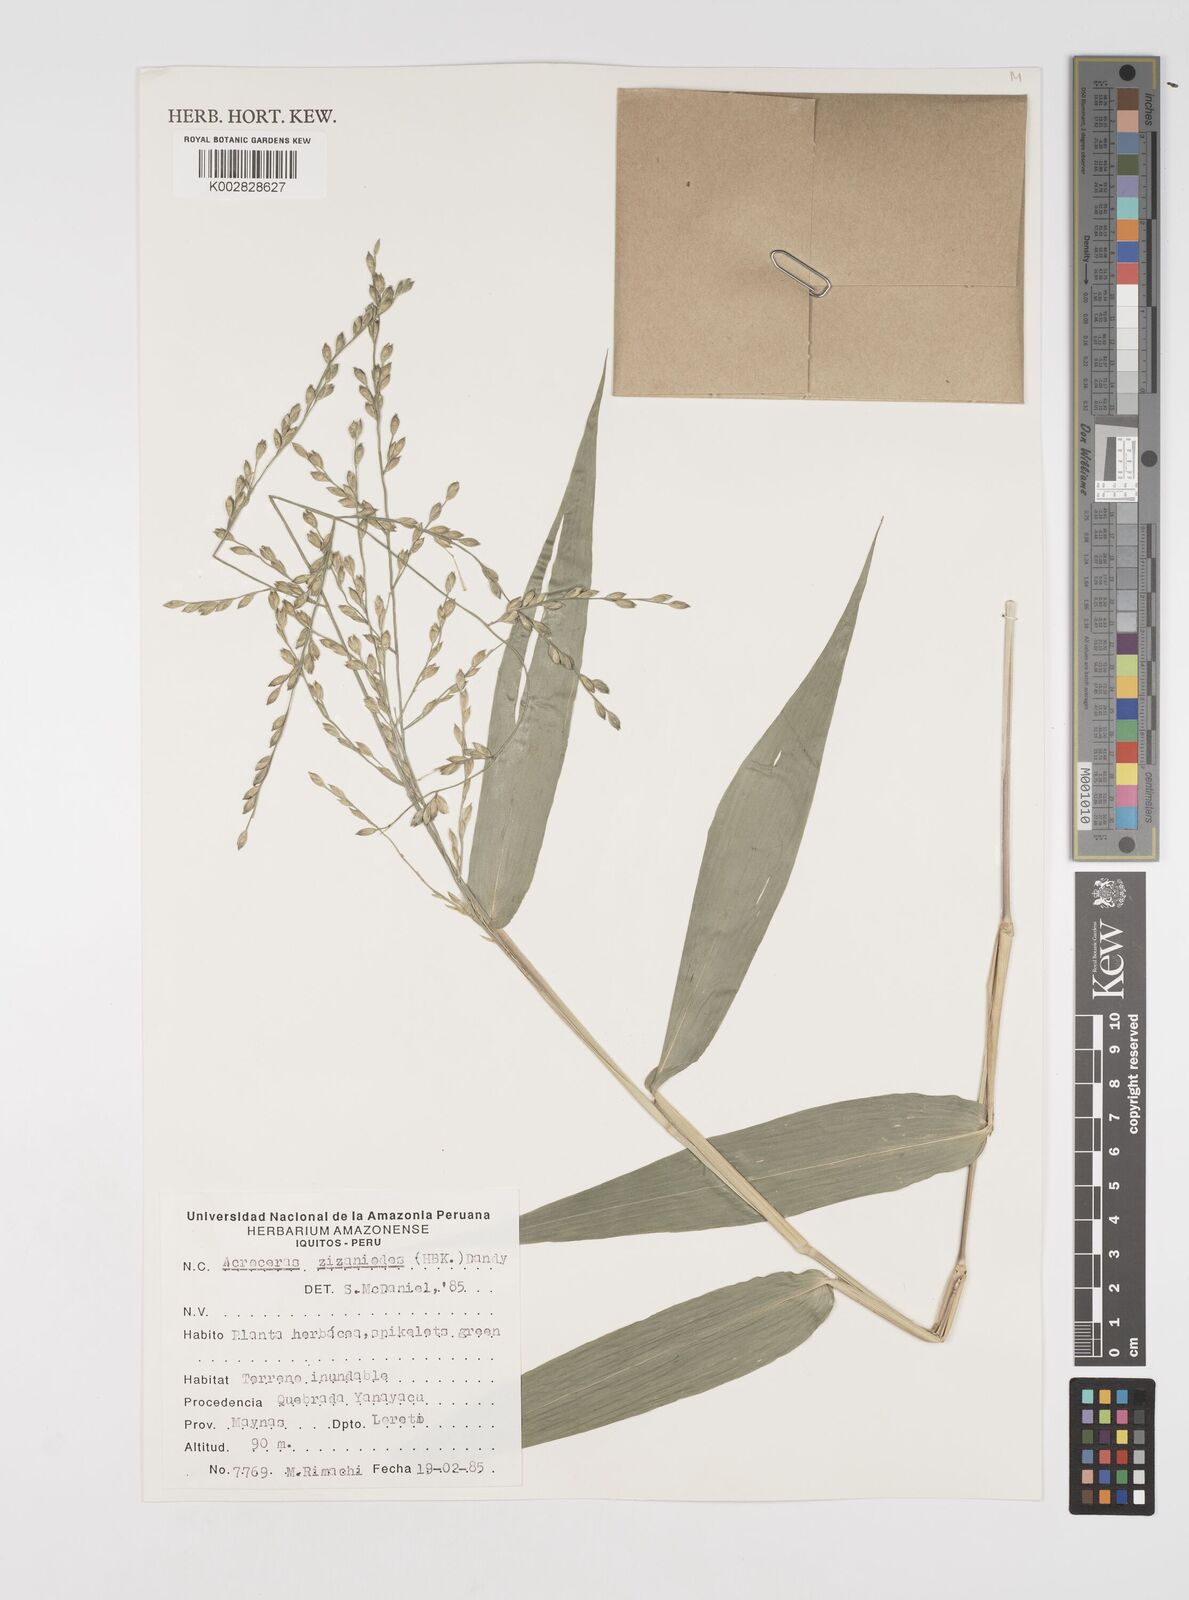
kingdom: Plantae
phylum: Tracheophyta
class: Liliopsida
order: Poales
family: Poaceae
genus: Acroceras
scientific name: Acroceras zizanioides
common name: Oat grass
